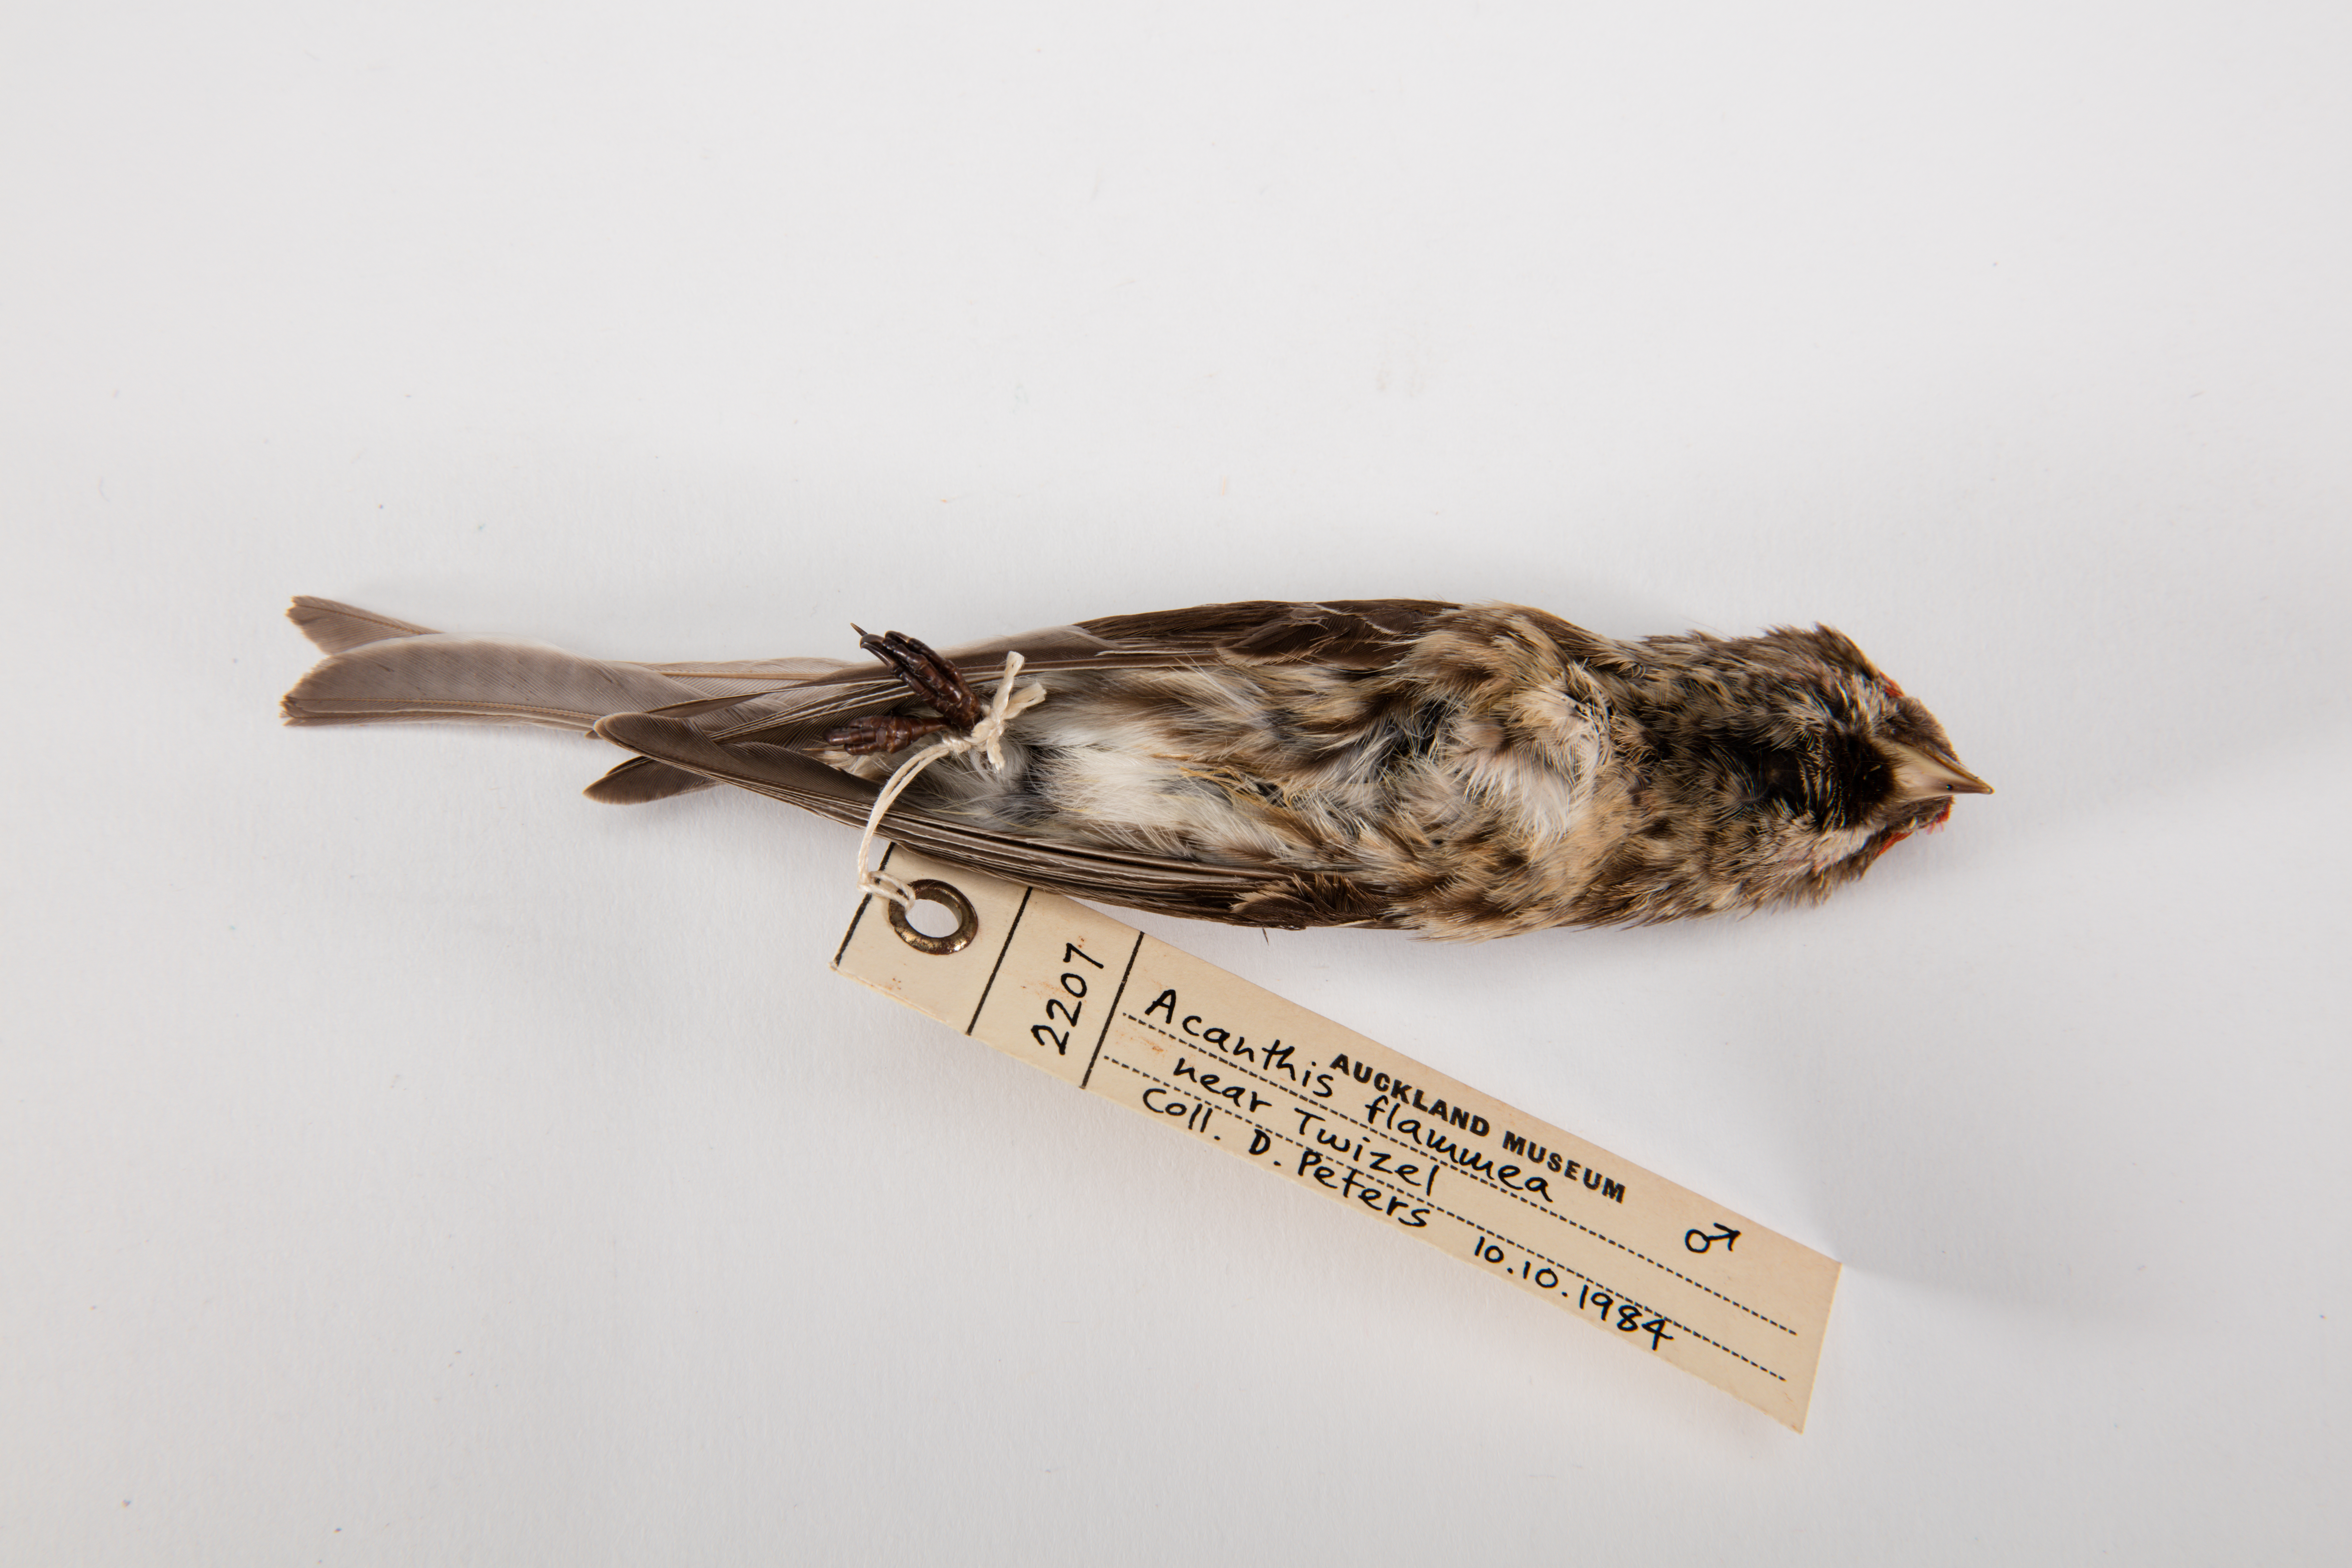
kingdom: Animalia
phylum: Chordata
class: Aves
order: Passeriformes
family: Fringillidae
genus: Acanthis
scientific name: Acanthis flammea
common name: Common redpoll
